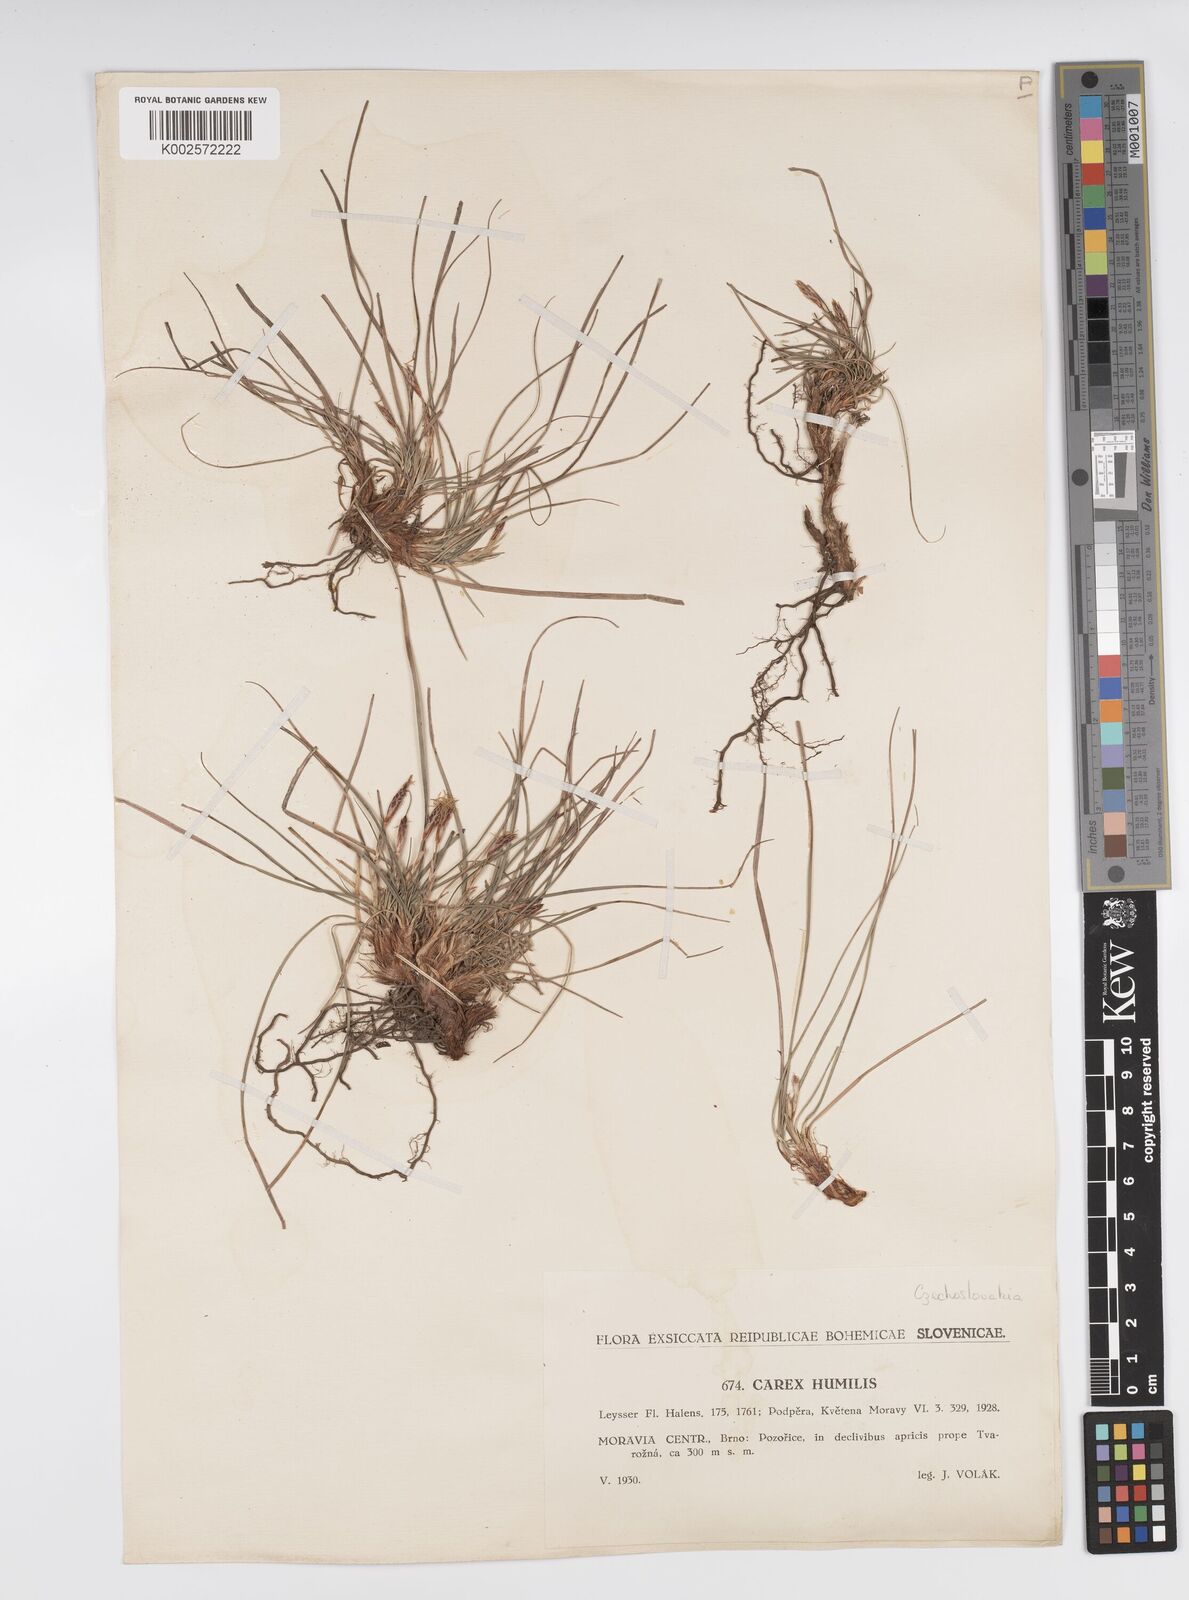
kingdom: Plantae
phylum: Tracheophyta
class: Liliopsida
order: Poales
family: Cyperaceae
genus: Carex
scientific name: Carex humilis
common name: Dwarf sedge
